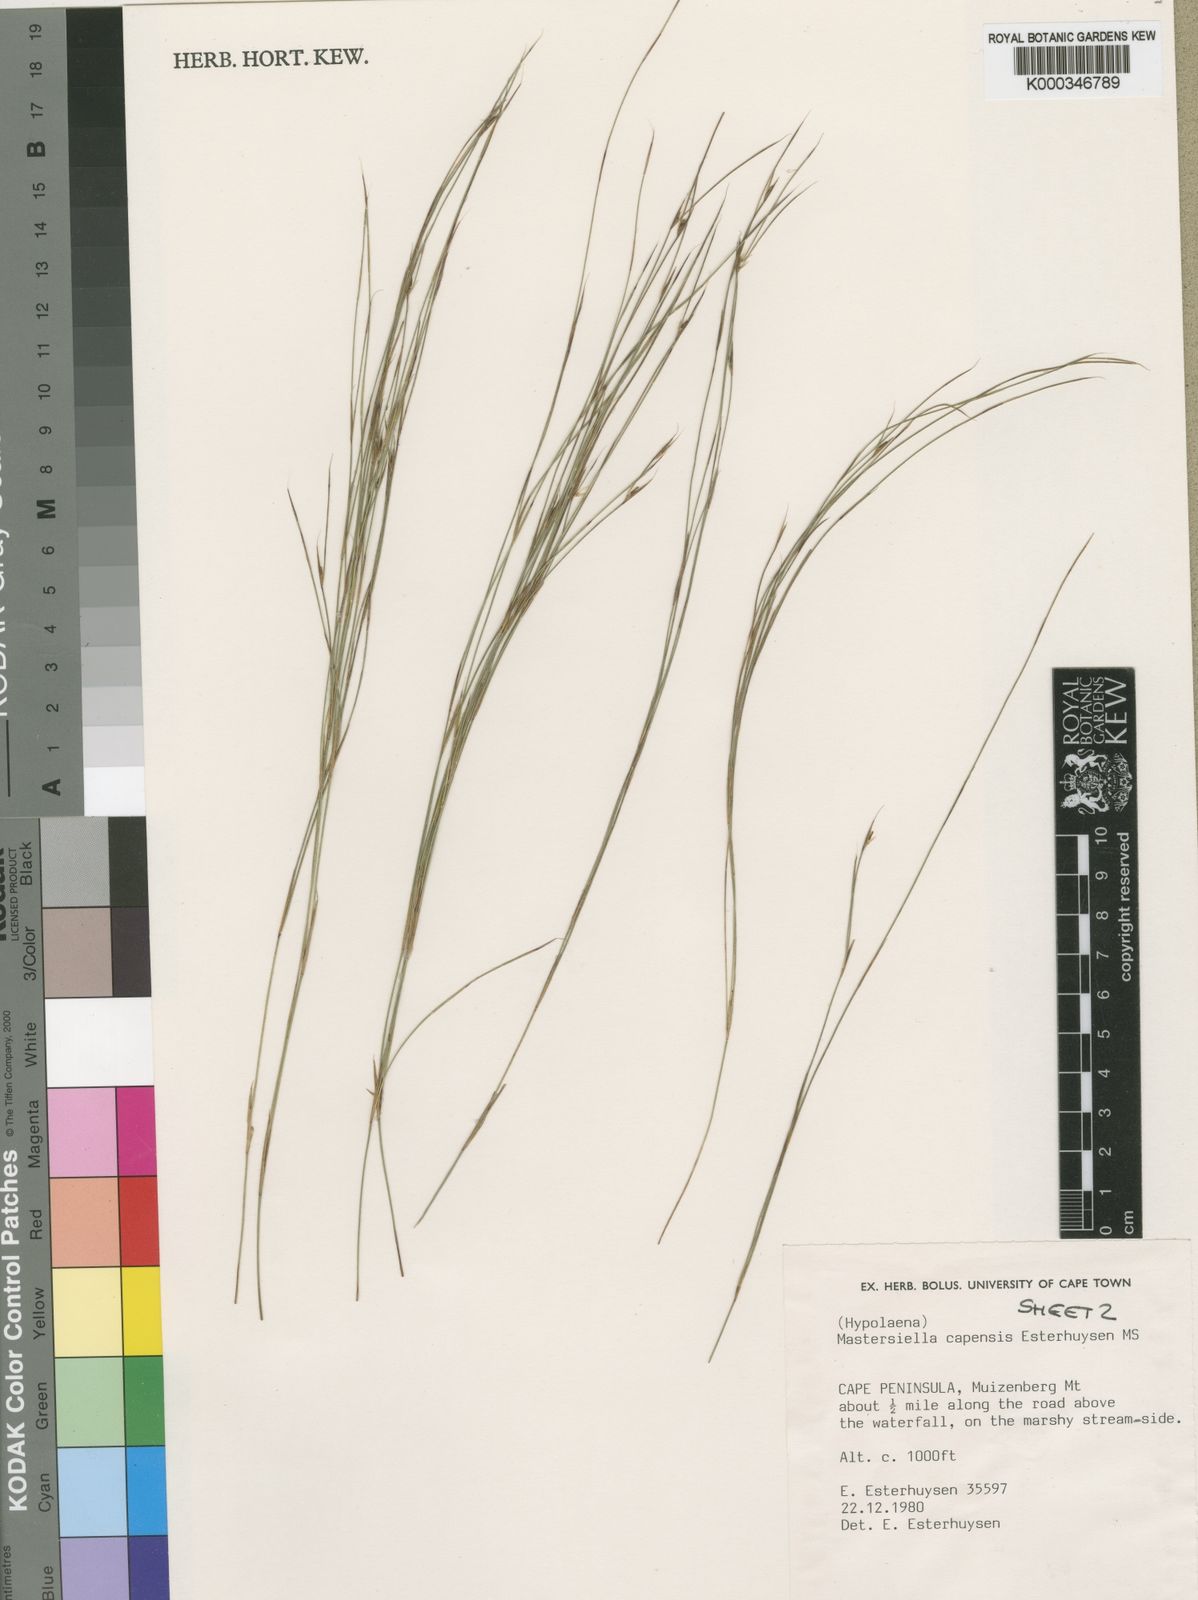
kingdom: Plantae
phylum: Tracheophyta
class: Liliopsida
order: Poales
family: Restionaceae
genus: Anthochortus
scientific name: Anthochortus capensis
